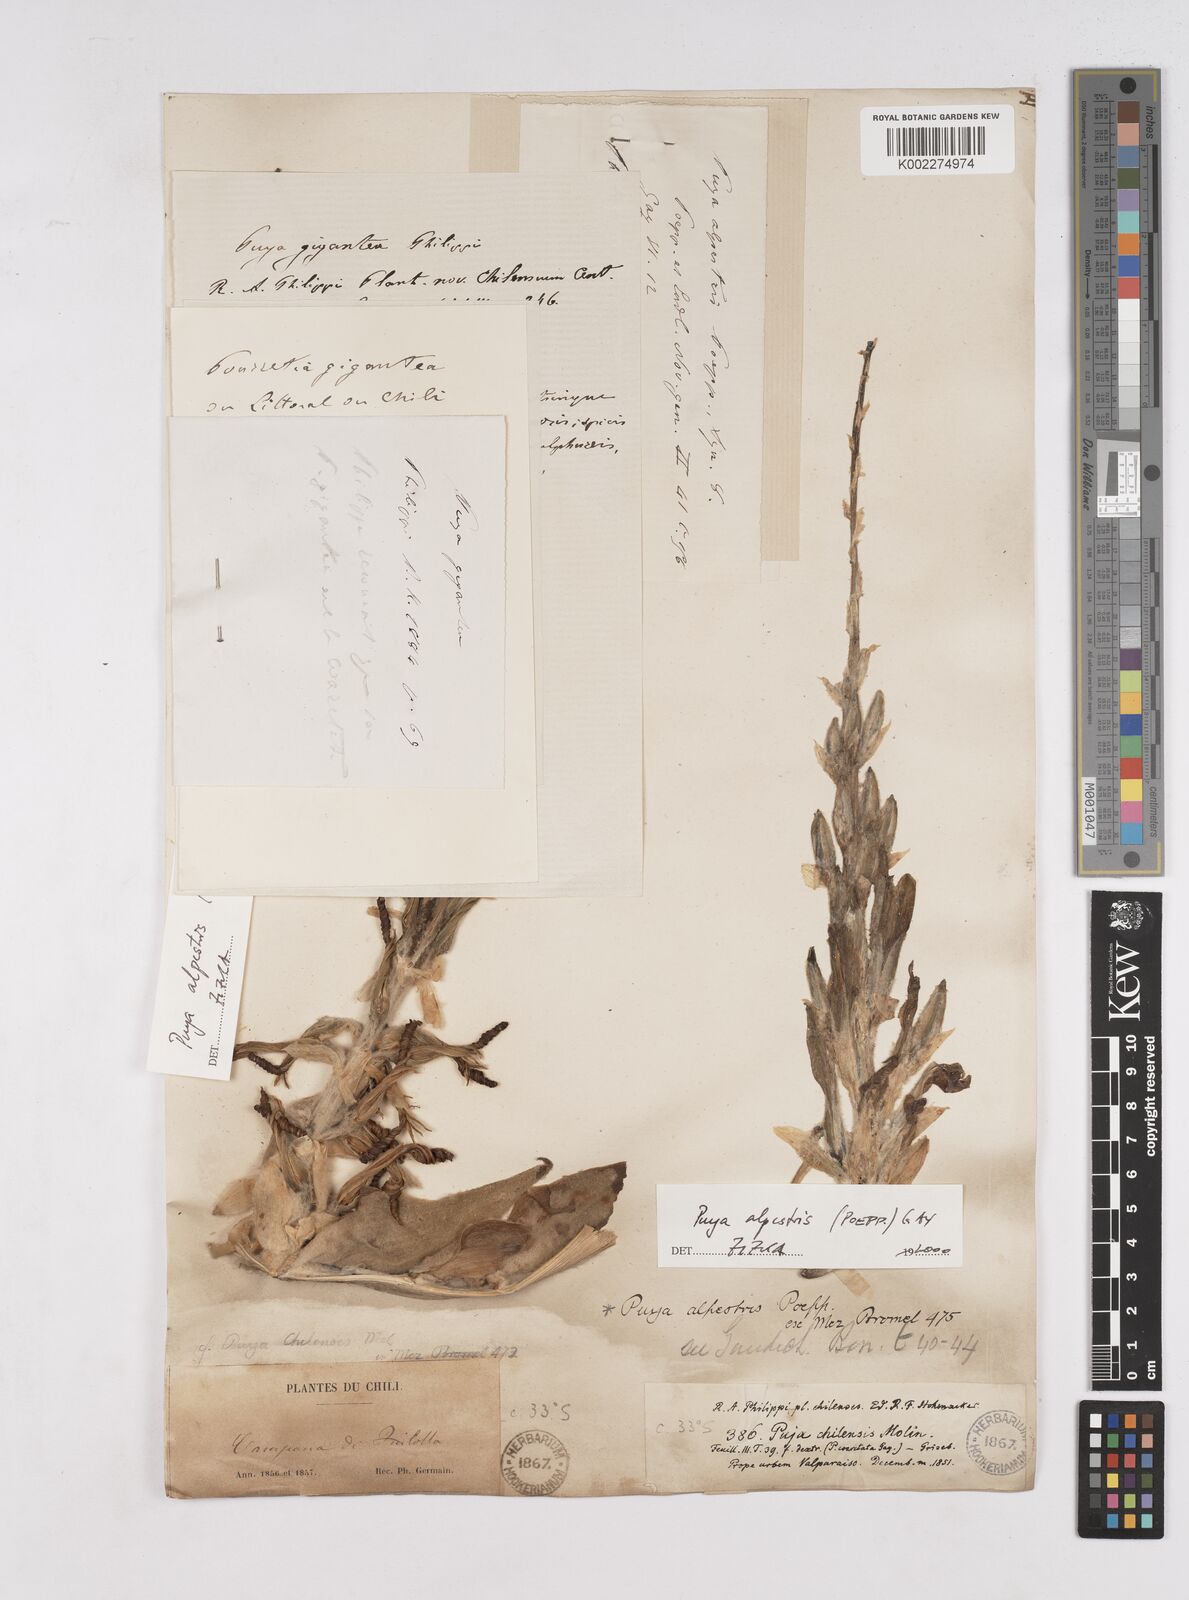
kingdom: Plantae
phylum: Tracheophyta
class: Liliopsida
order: Poales
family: Bromeliaceae
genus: Puya
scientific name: Puya berteroniana
